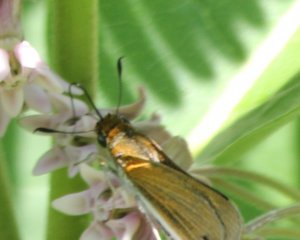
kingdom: Animalia
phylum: Arthropoda
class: Insecta
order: Lepidoptera
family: Hesperiidae
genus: Thymelicus
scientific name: Thymelicus lineola
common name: European Skipper
